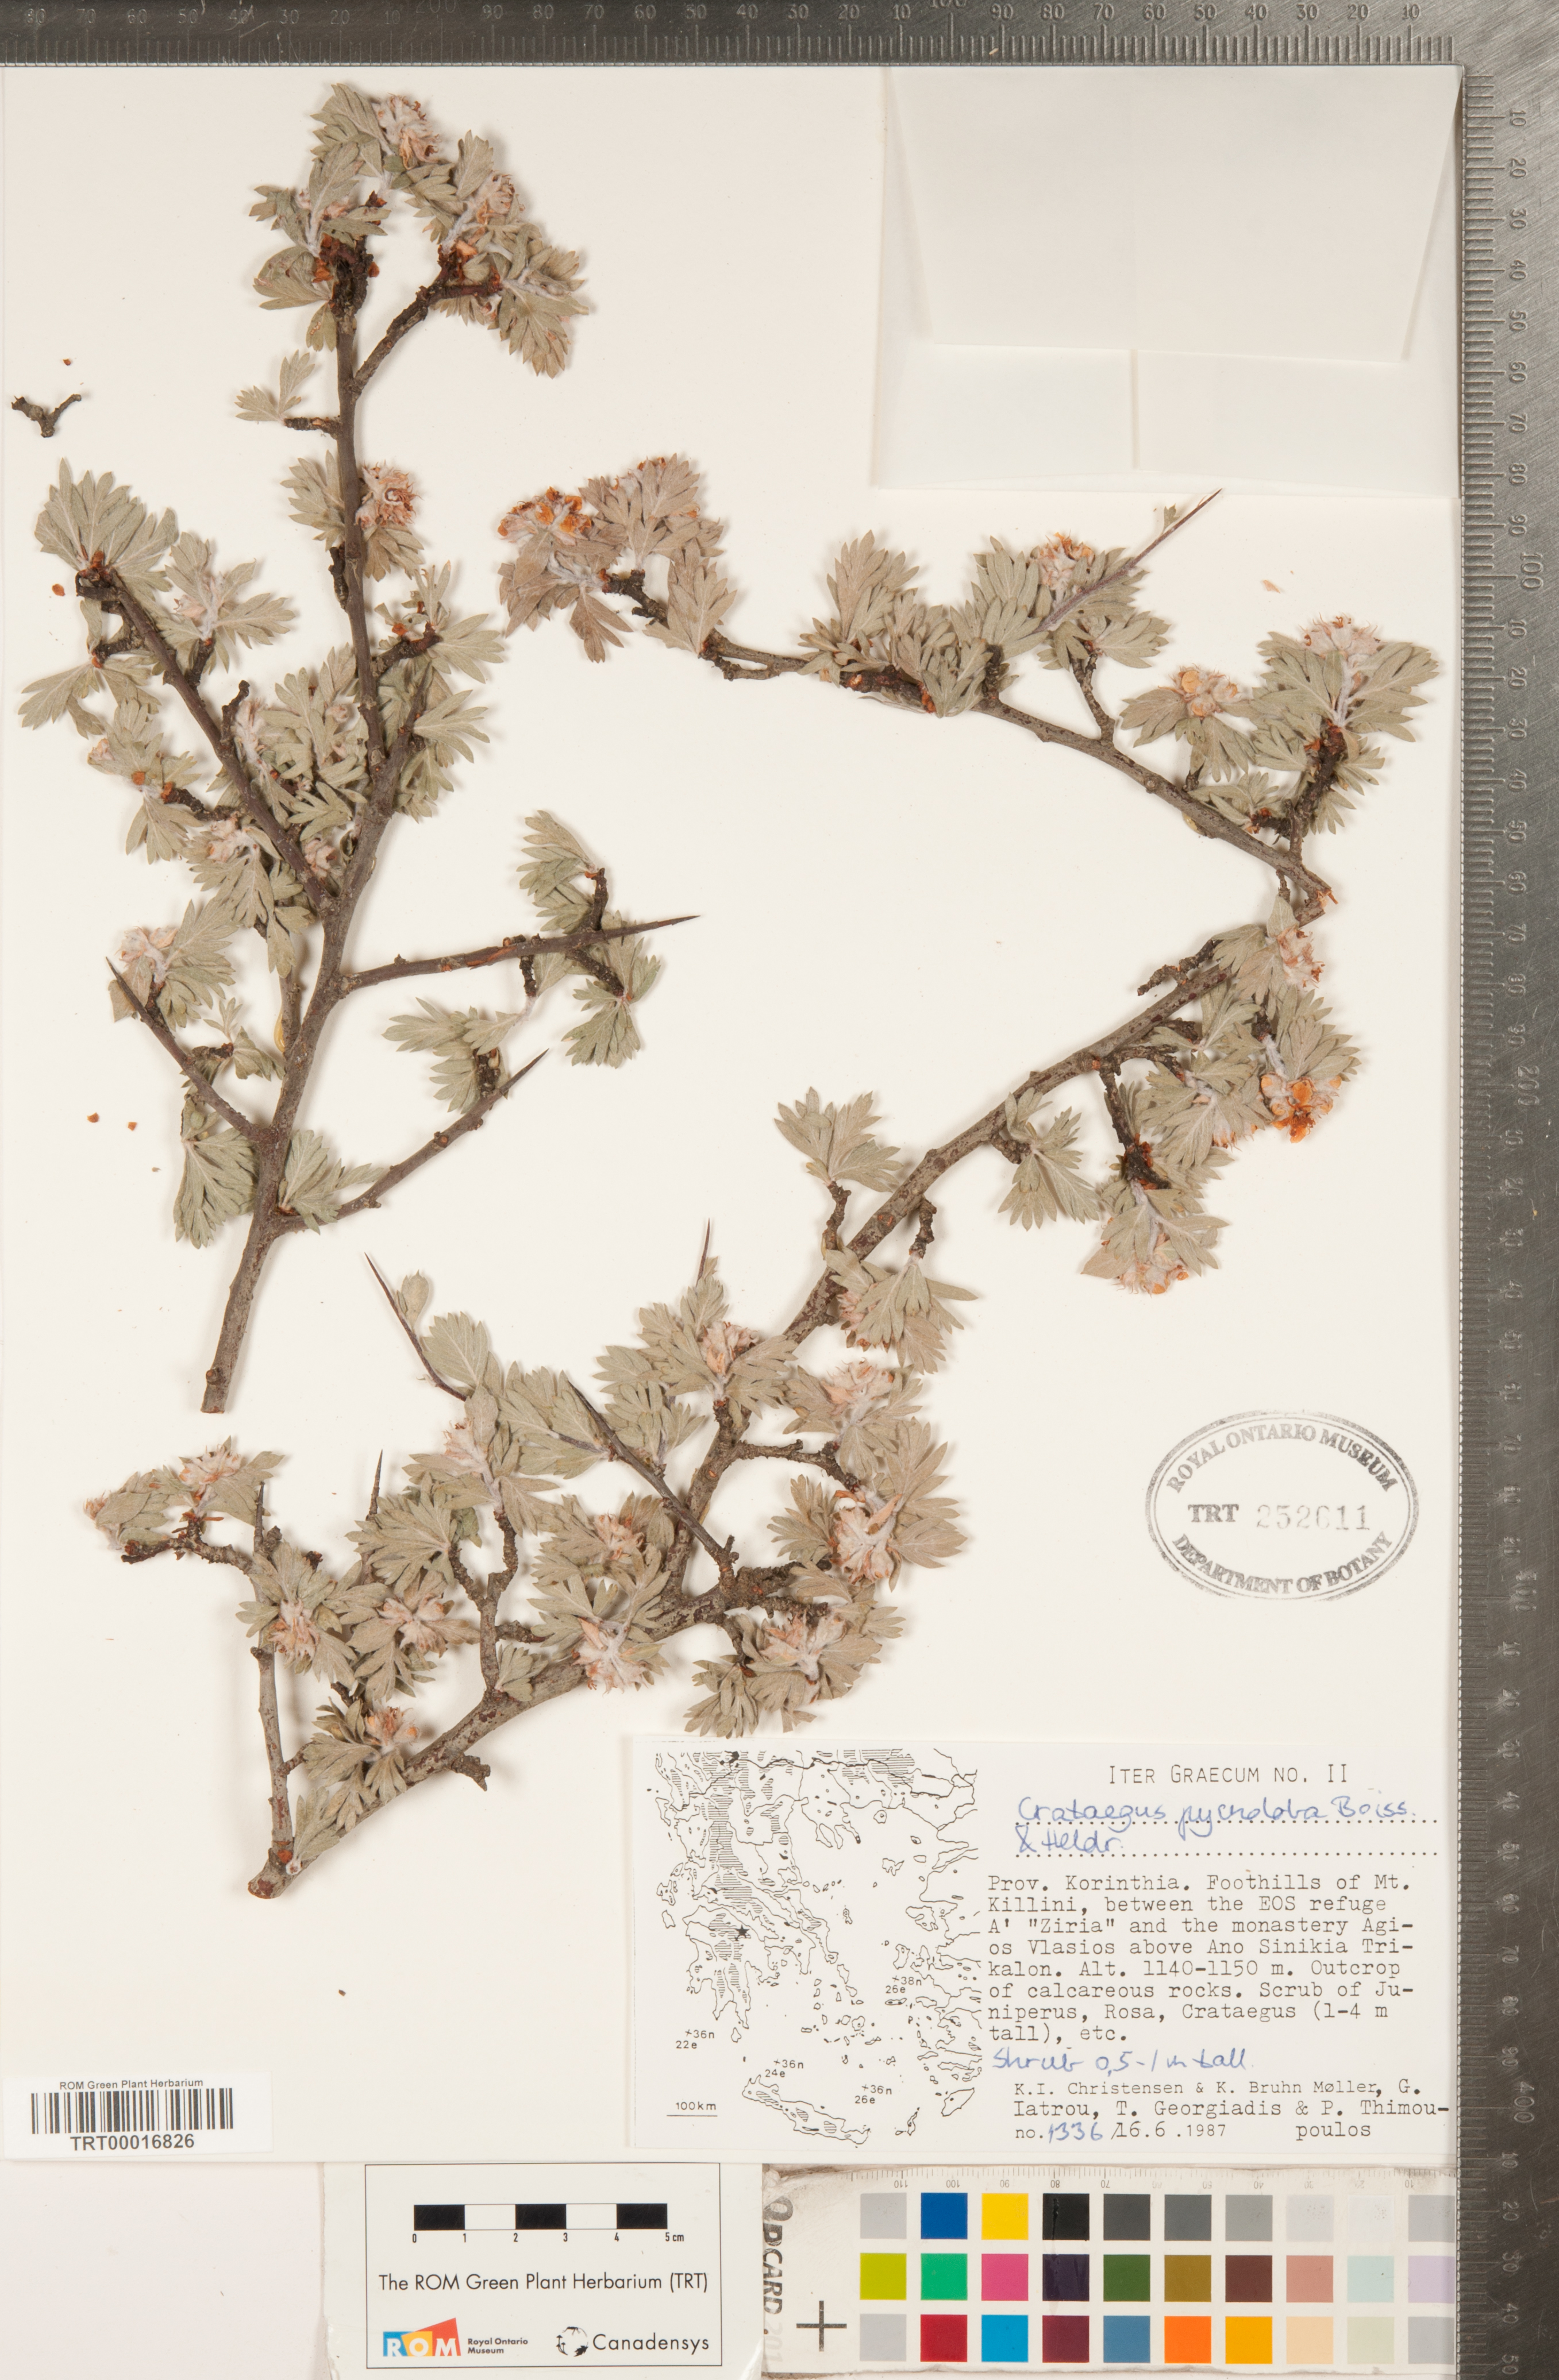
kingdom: Plantae
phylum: Tracheophyta
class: Magnoliopsida
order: Rosales
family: Rosaceae
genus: Crataegus
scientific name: Crataegus pycnoloba
